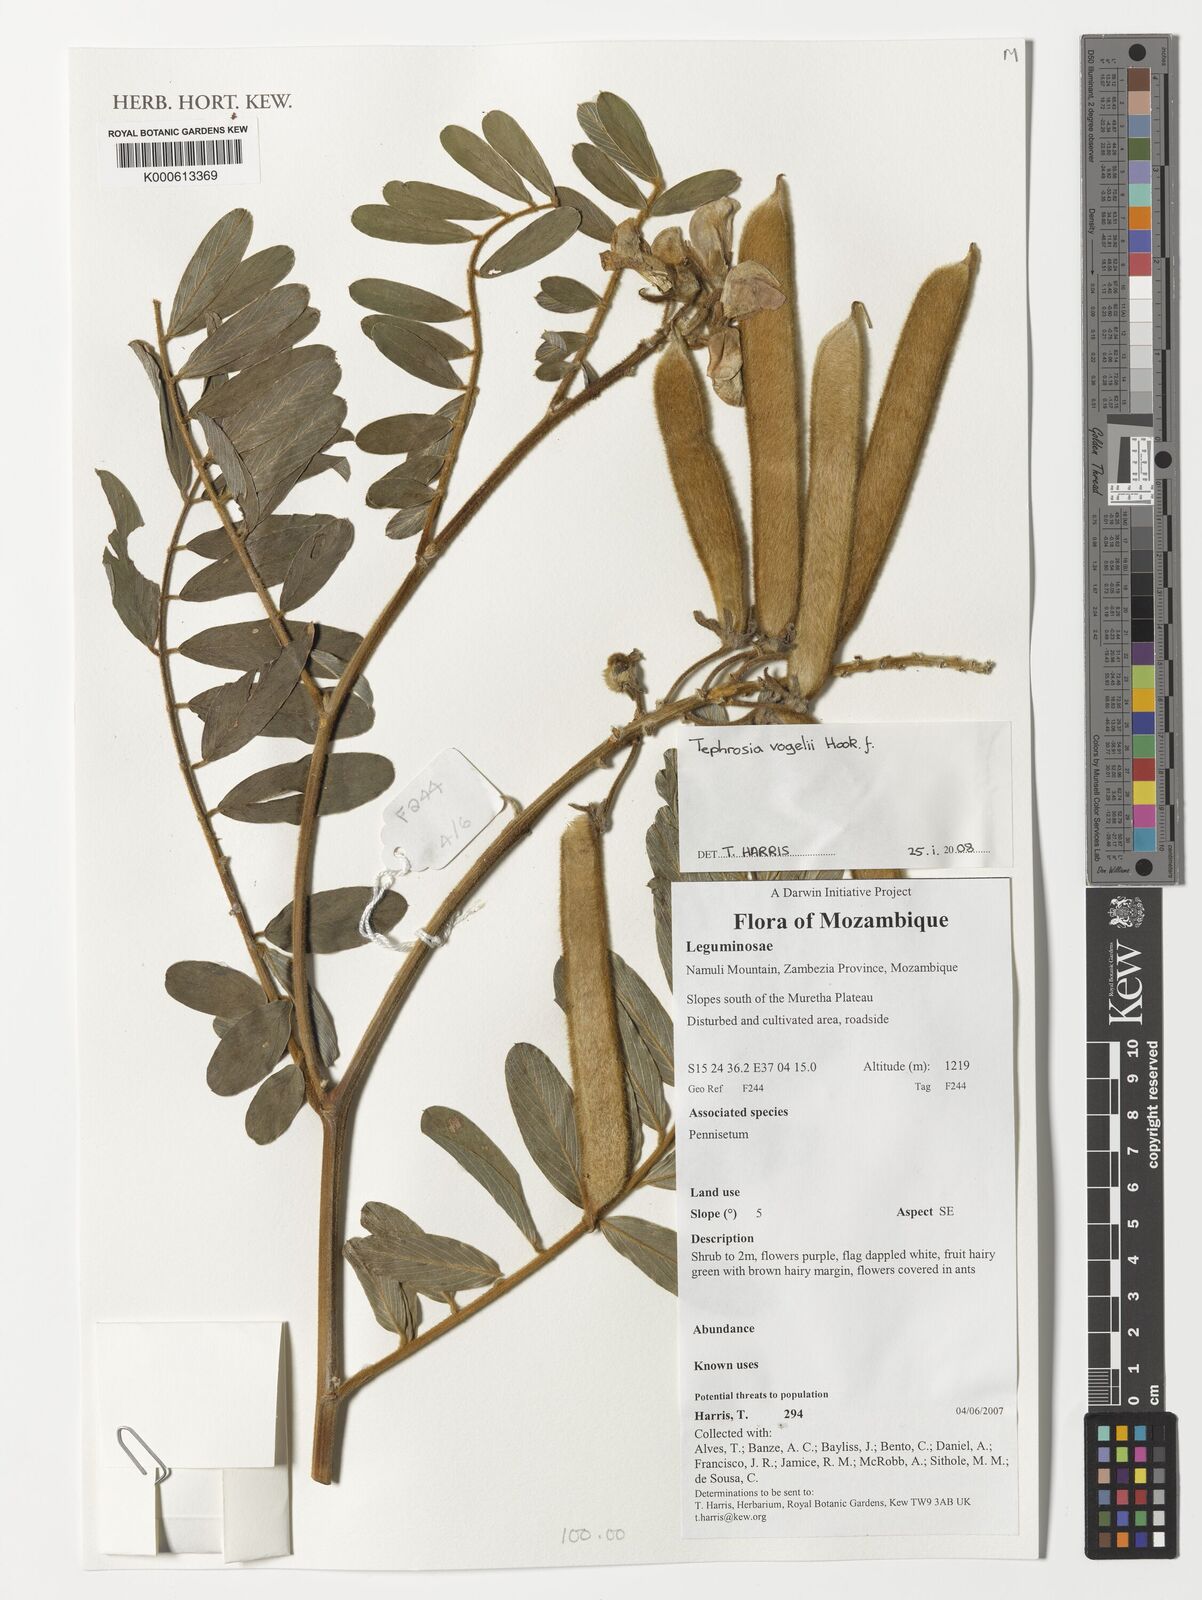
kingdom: Plantae
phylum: Tracheophyta
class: Magnoliopsida
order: Fabales
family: Fabaceae
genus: Tephrosia
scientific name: Tephrosia vogelii
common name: Vogel tephrosia
